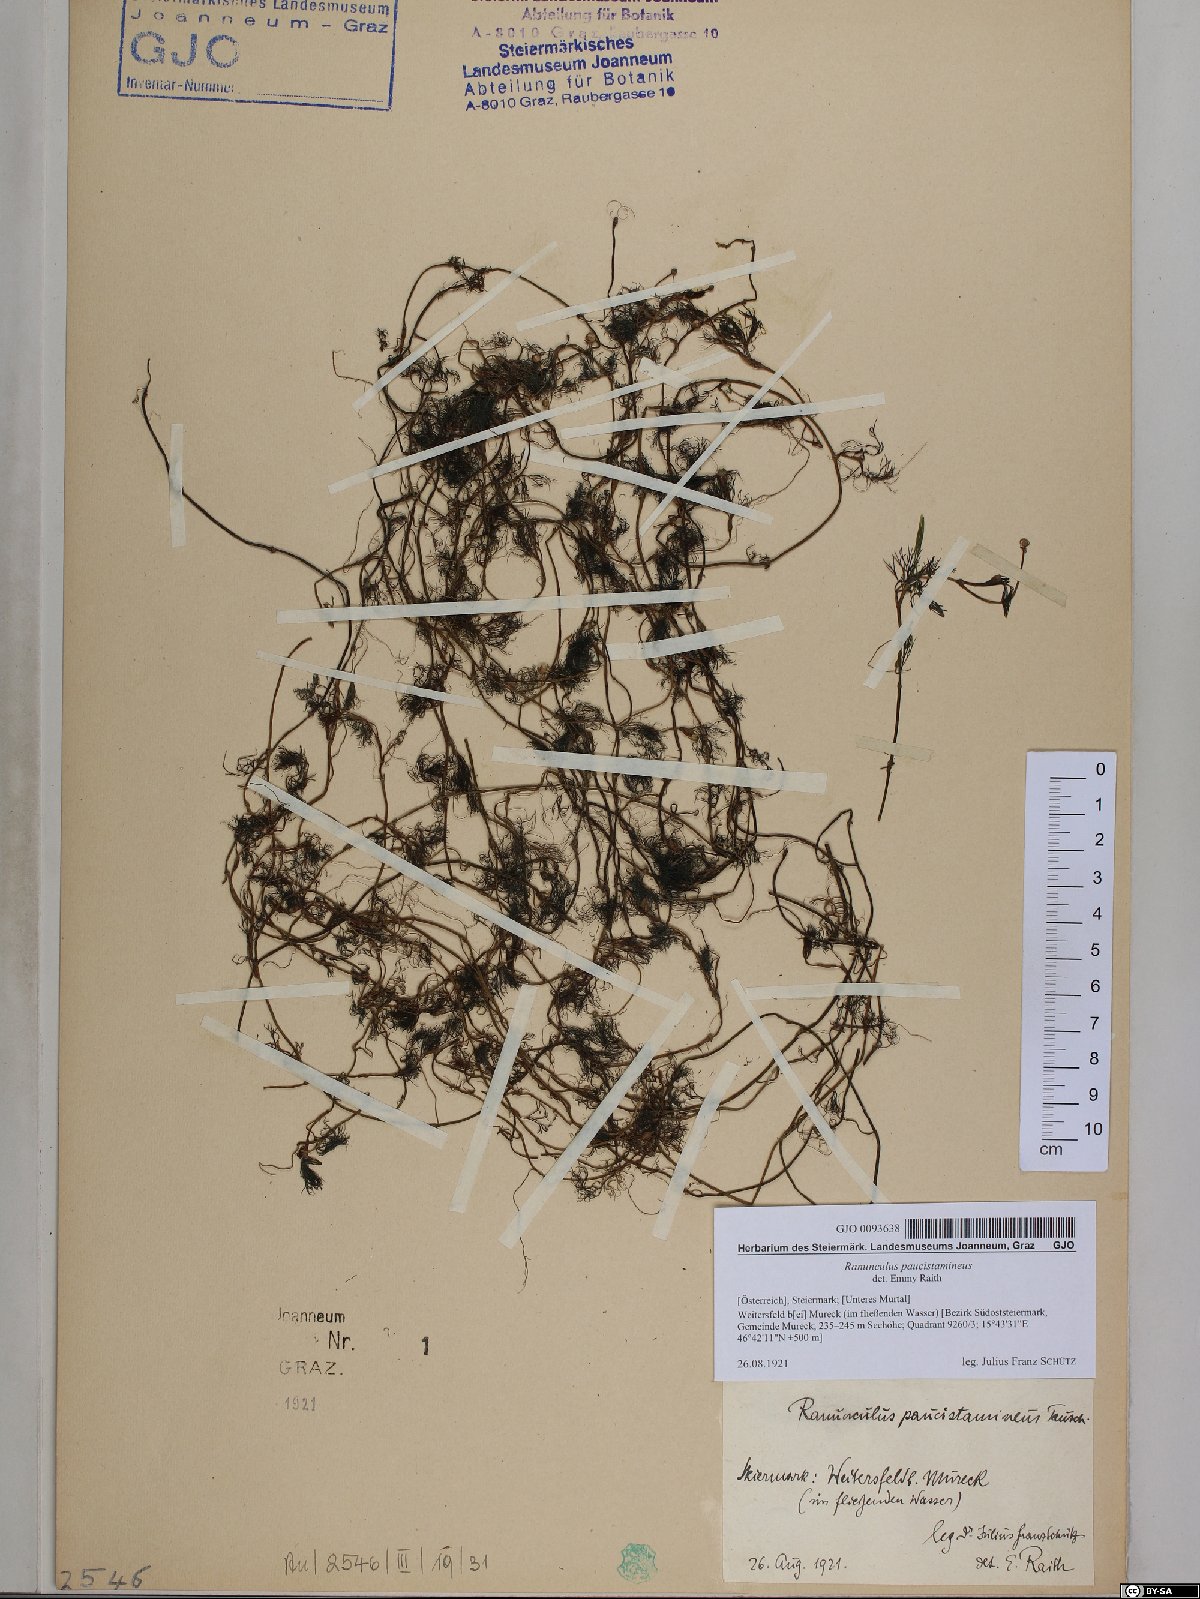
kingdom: Plantae
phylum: Tracheophyta
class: Magnoliopsida
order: Ranunculales
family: Ranunculaceae
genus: Ranunculus
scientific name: Ranunculus
